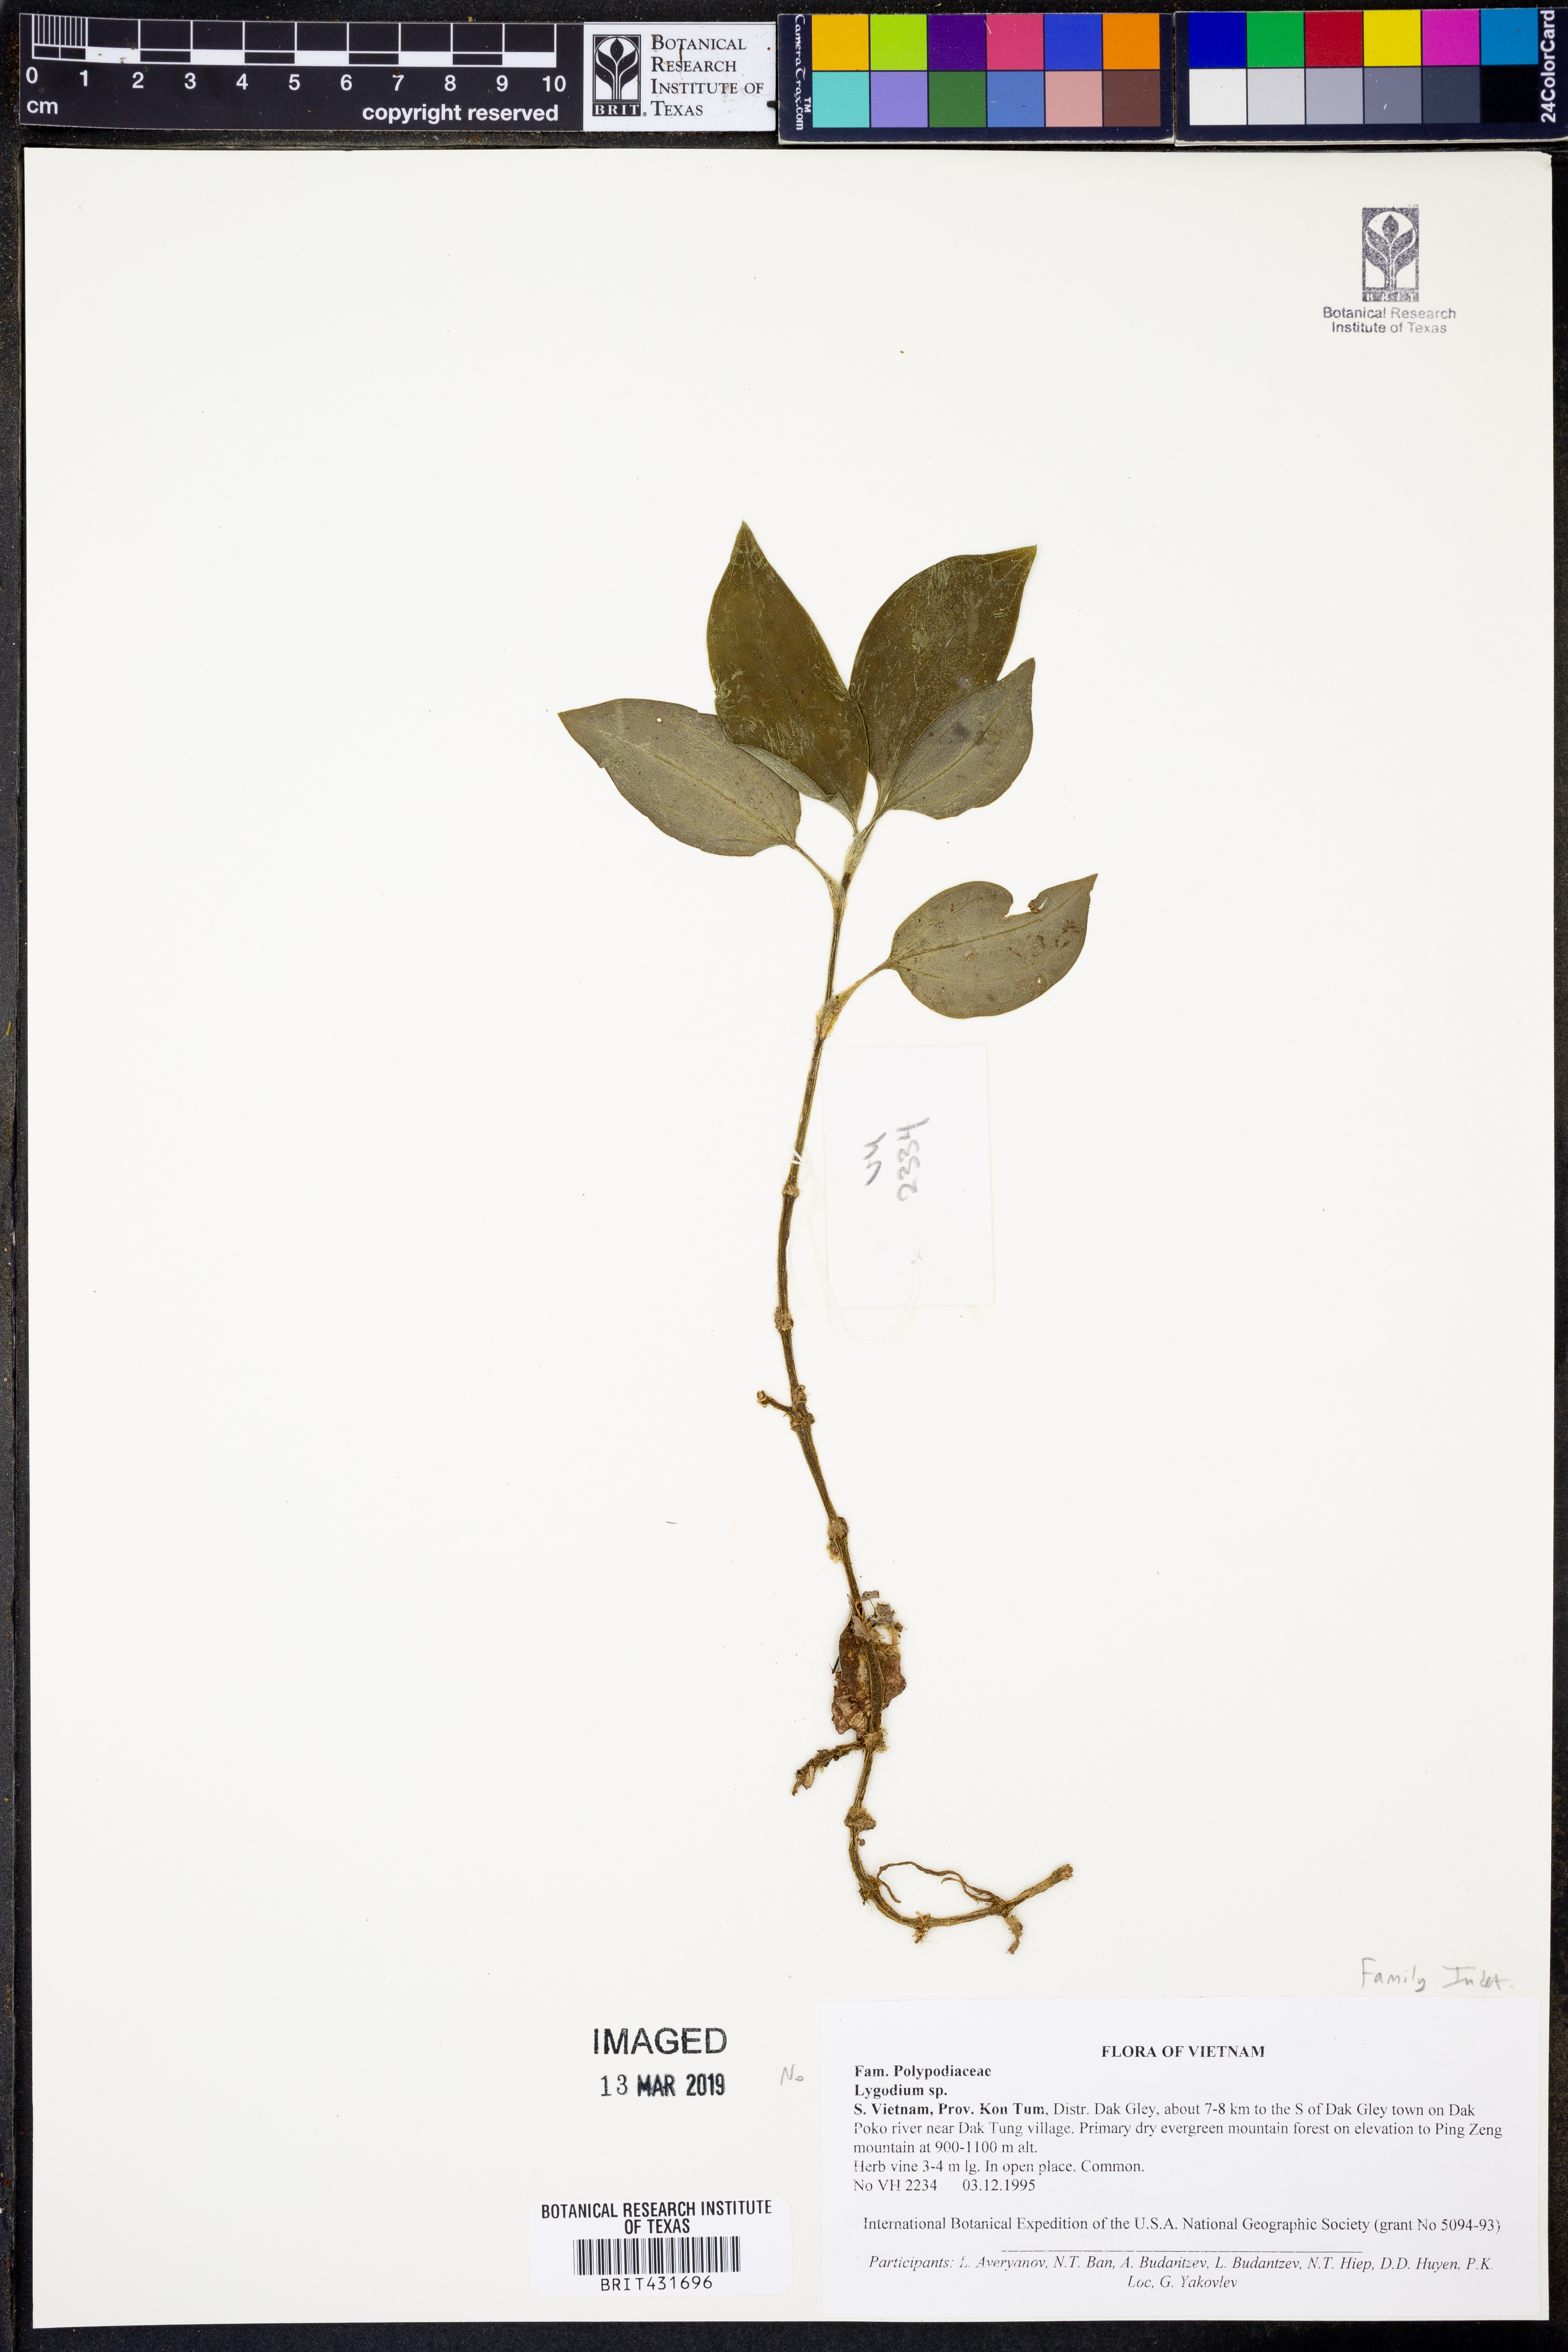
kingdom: Plantae
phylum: Tracheophyta
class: Polypodiopsida
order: Schizaeales
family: Lygodiaceae
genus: Lygodium
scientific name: Lygodium
